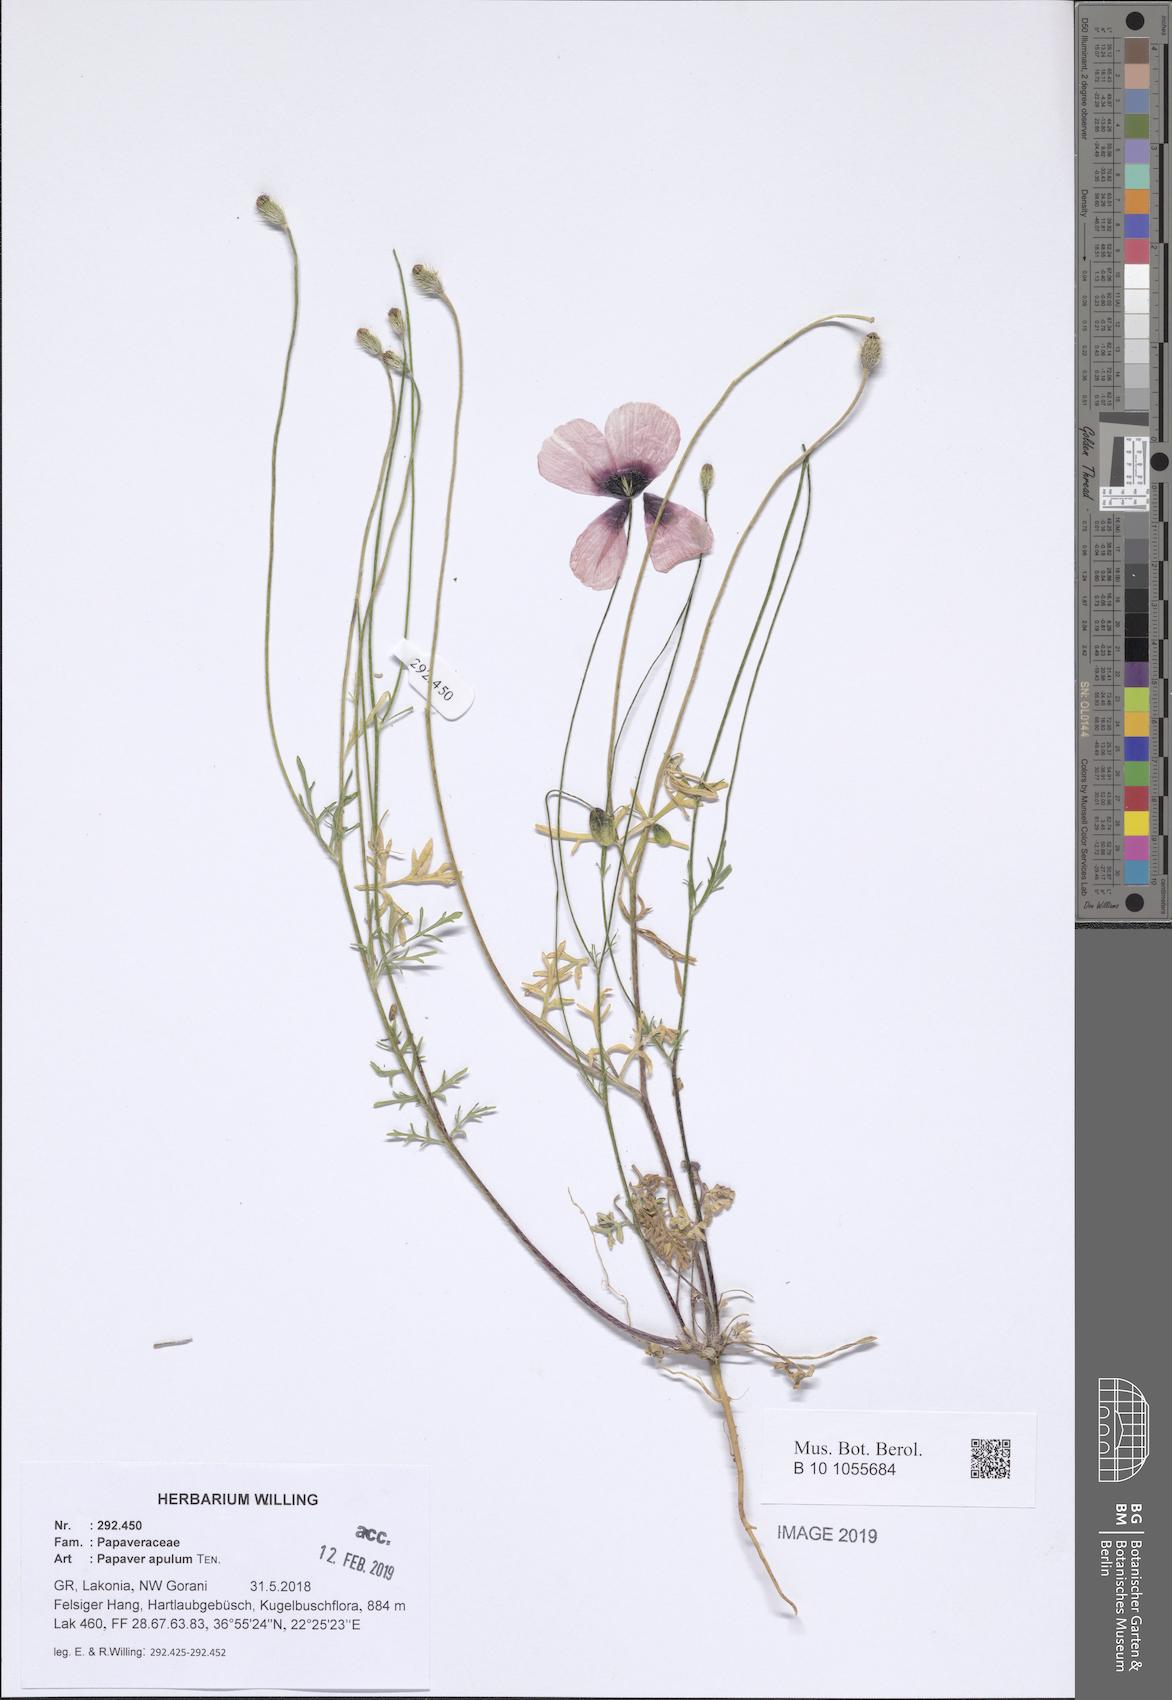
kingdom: Plantae
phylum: Tracheophyta
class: Magnoliopsida
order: Ranunculales
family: Papaveraceae
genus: Roemeria
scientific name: Roemeria apula
